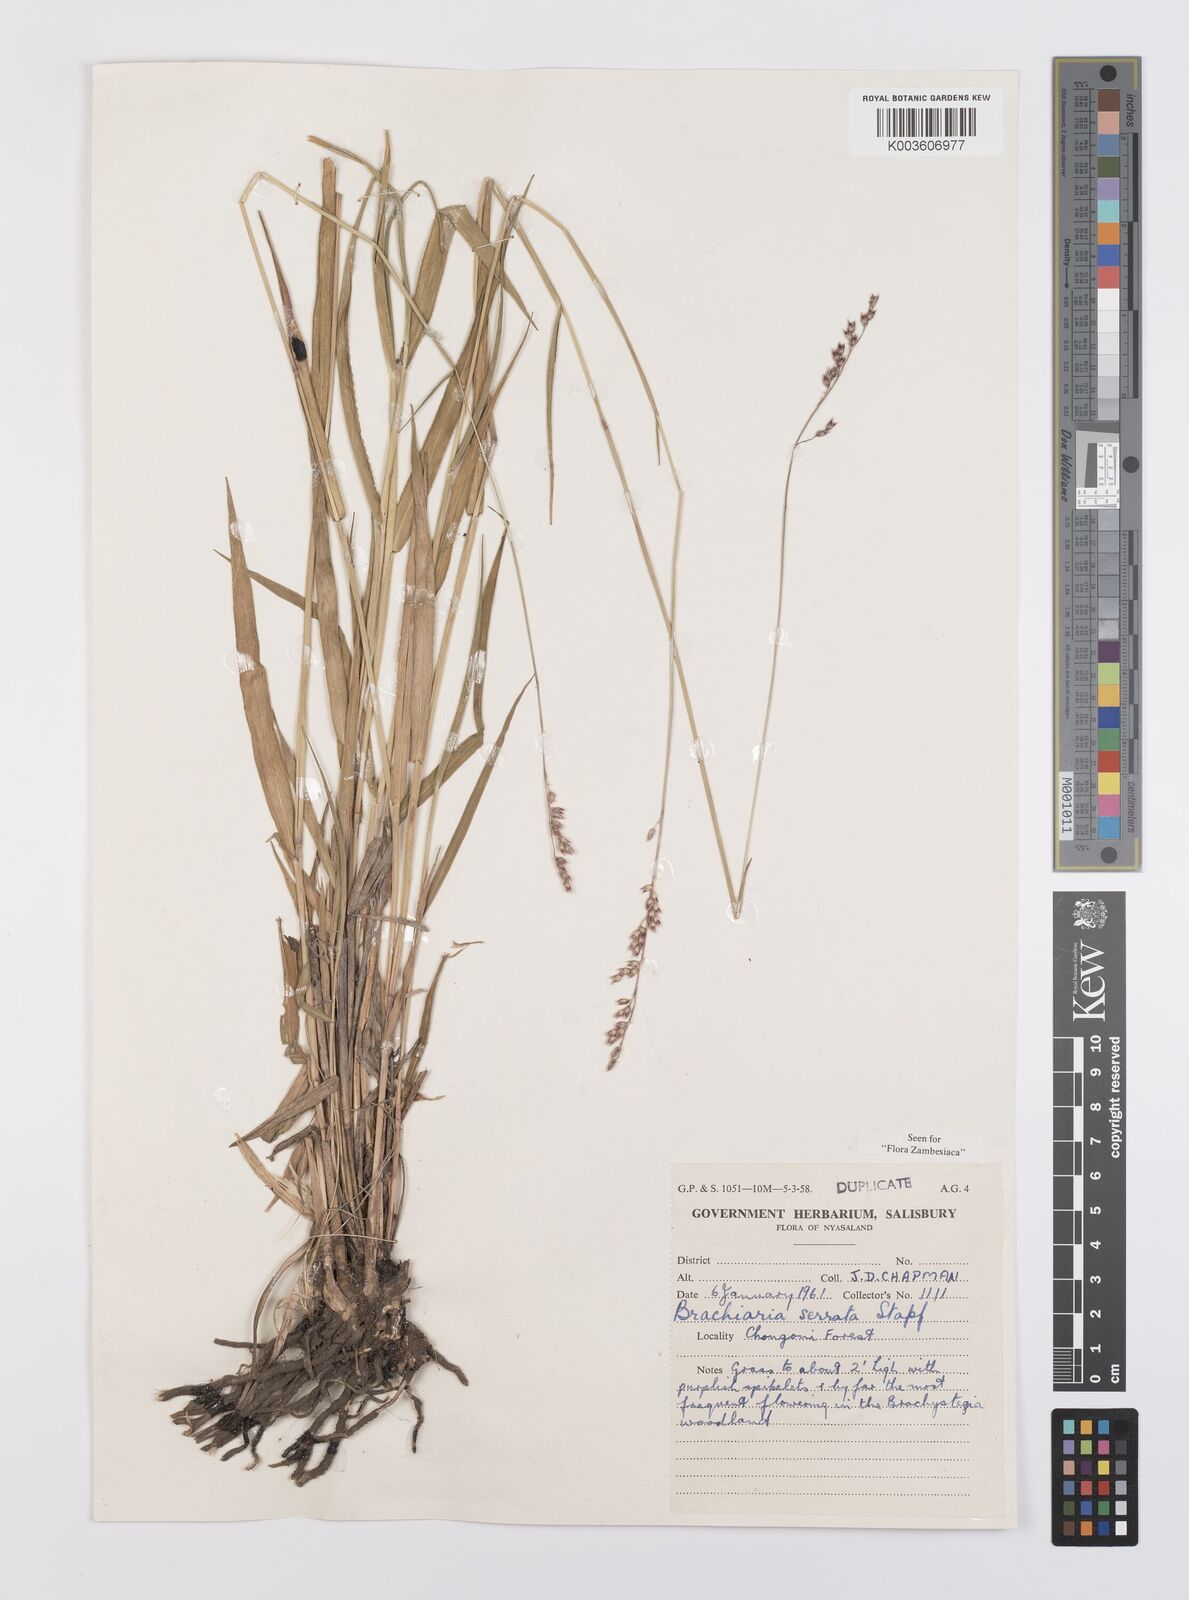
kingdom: Plantae
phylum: Tracheophyta
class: Liliopsida
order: Poales
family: Poaceae
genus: Urochloa
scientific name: Urochloa serrata
